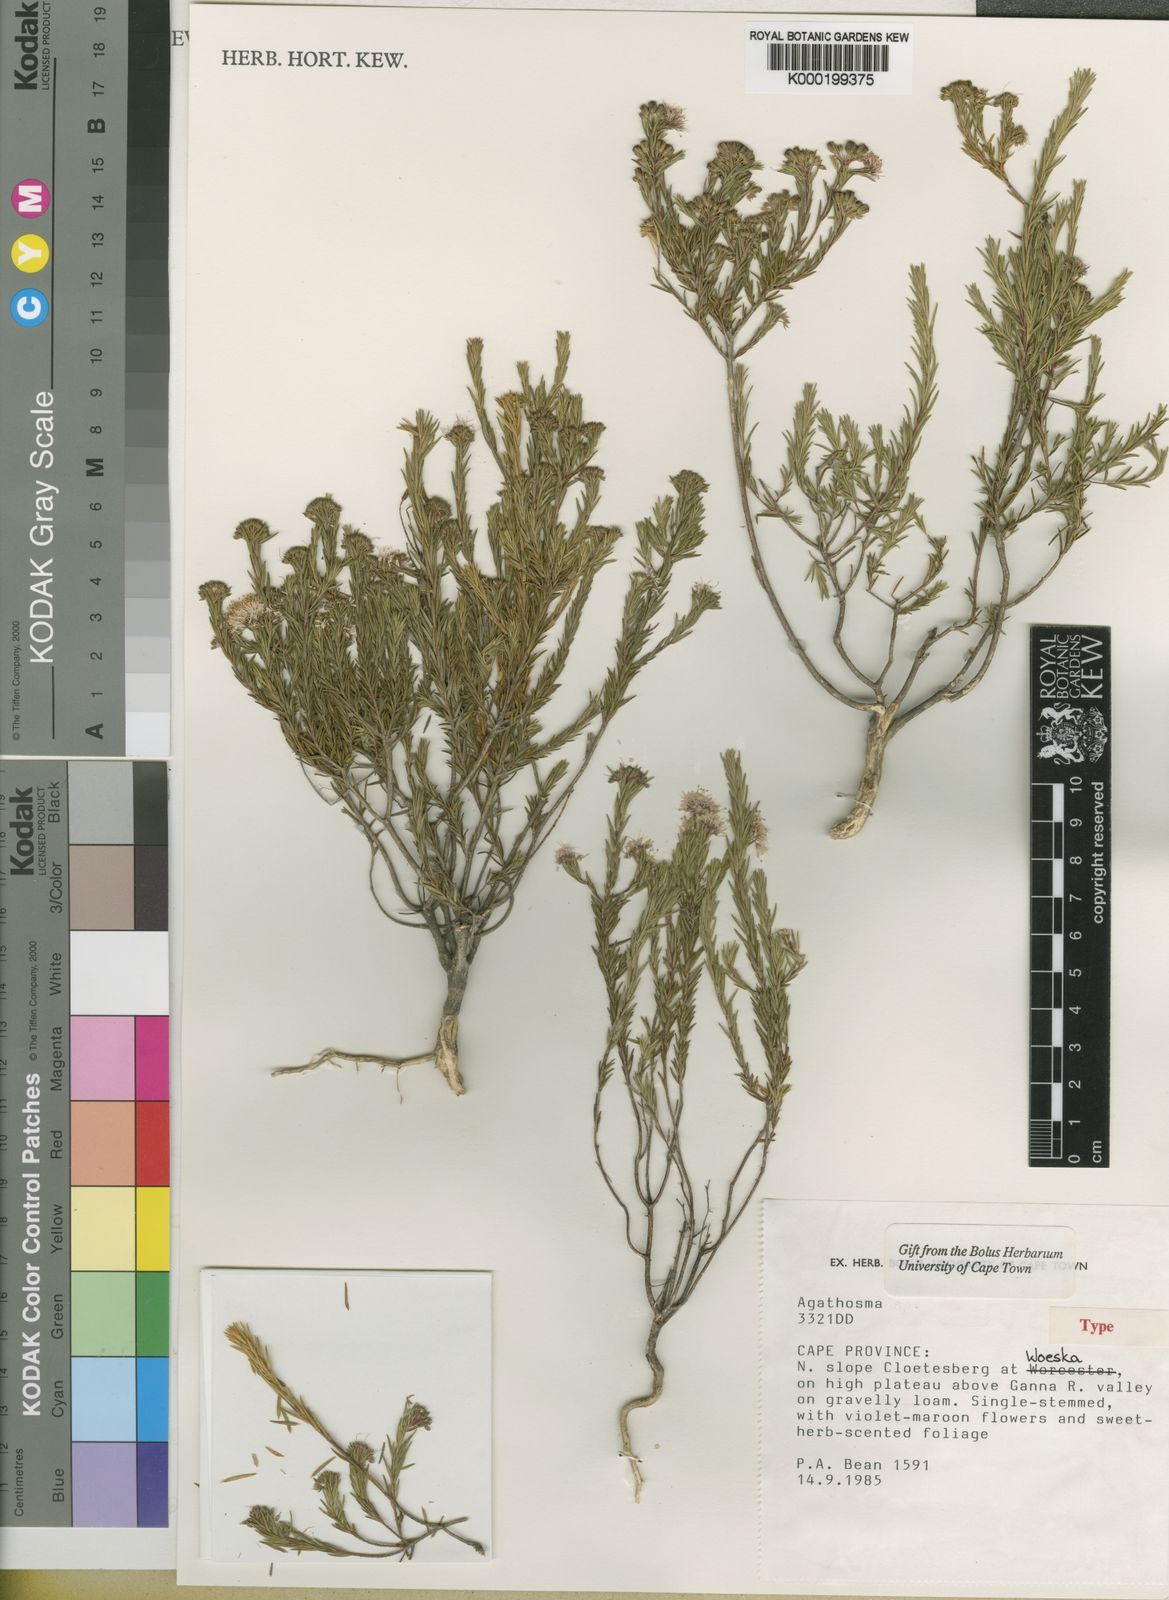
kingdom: Plantae
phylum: Tracheophyta
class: Magnoliopsida
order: Sapindales
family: Rutaceae
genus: Agathosma
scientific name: Agathosma
